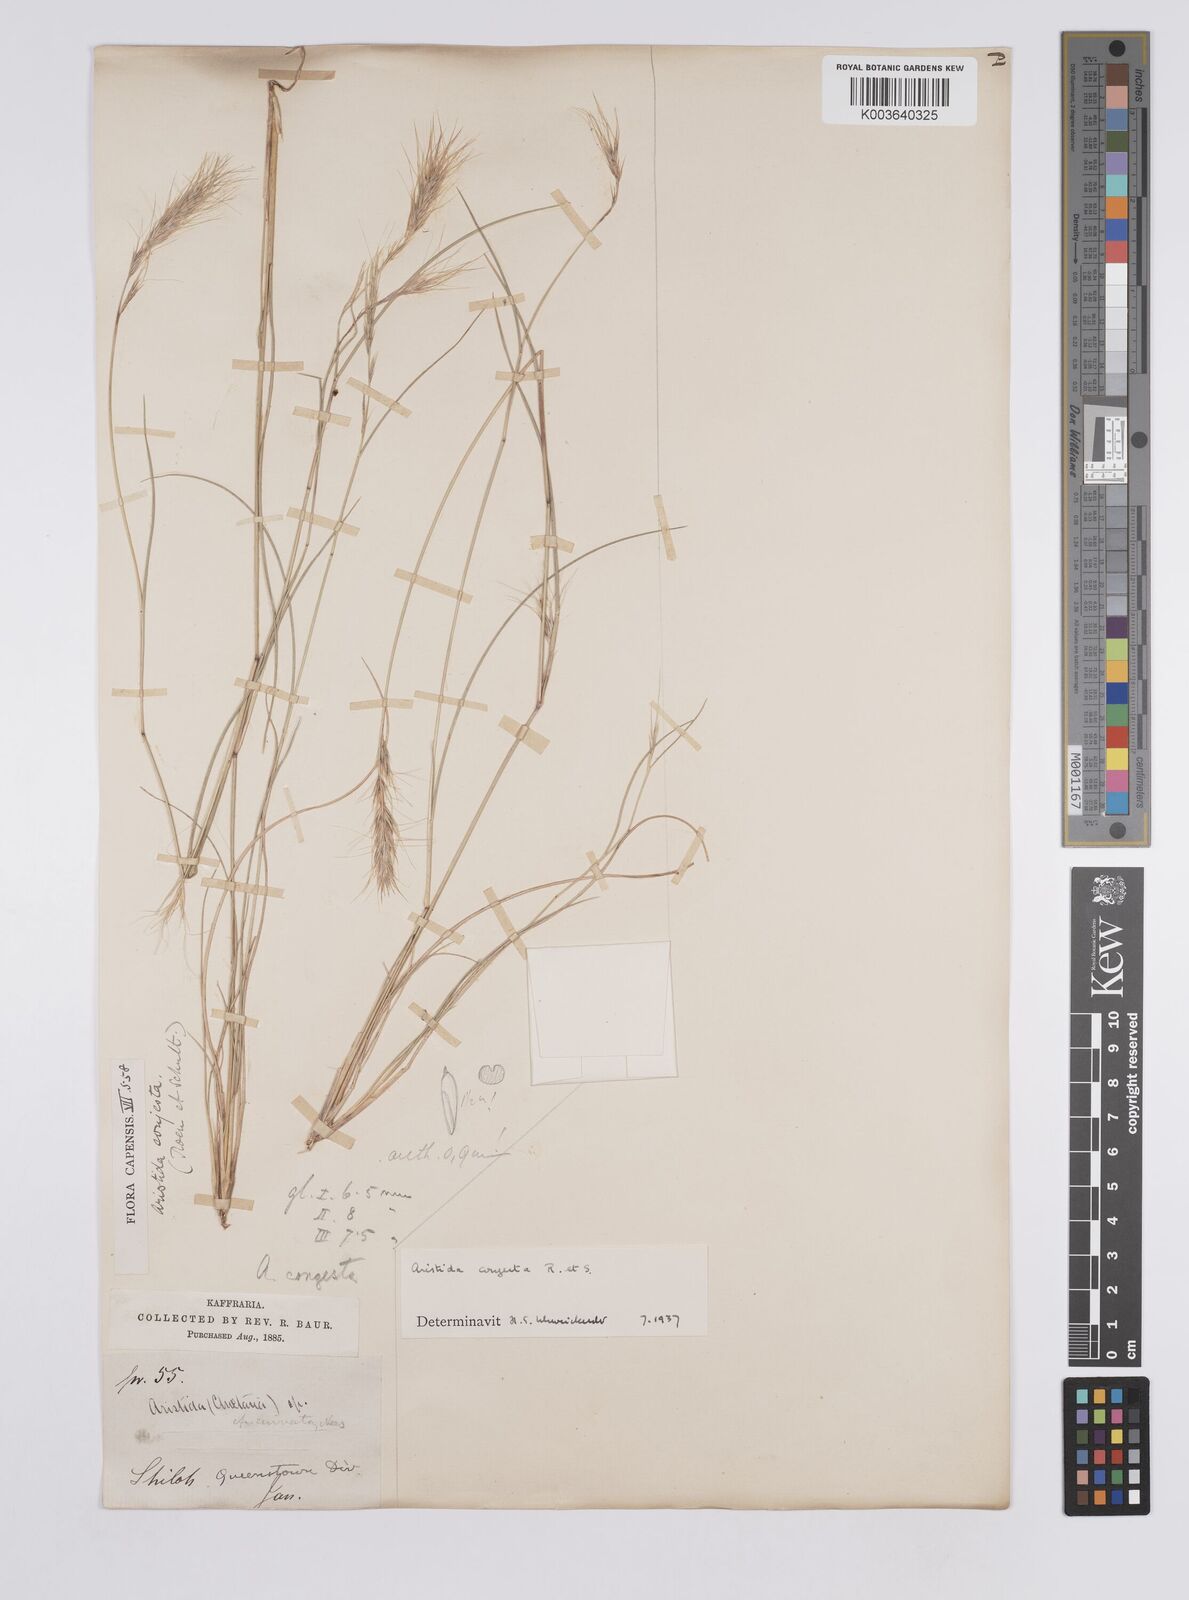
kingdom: Plantae
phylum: Tracheophyta
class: Liliopsida
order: Poales
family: Poaceae
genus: Aristida
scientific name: Aristida congesta
